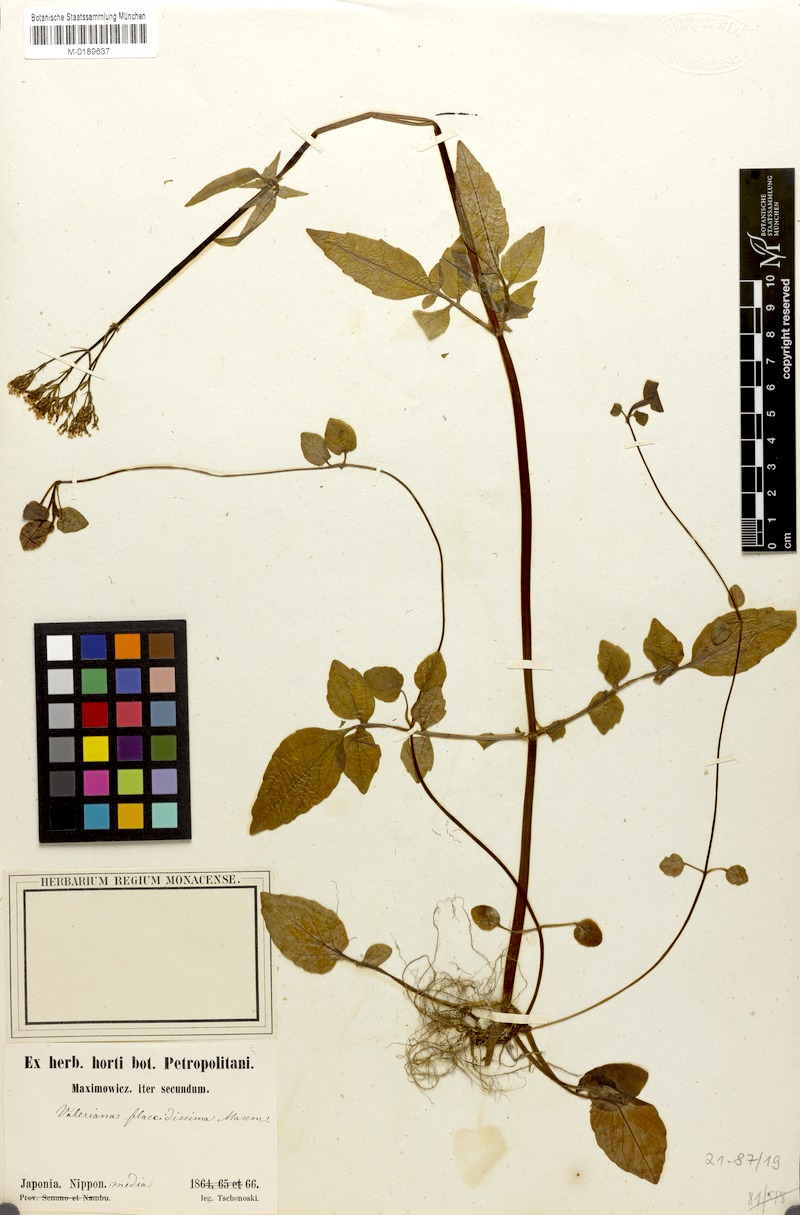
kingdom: Plantae
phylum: Tracheophyta
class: Magnoliopsida
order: Dipsacales
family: Caprifoliaceae
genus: Valeriana
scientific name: Valeriana flaccidissima
